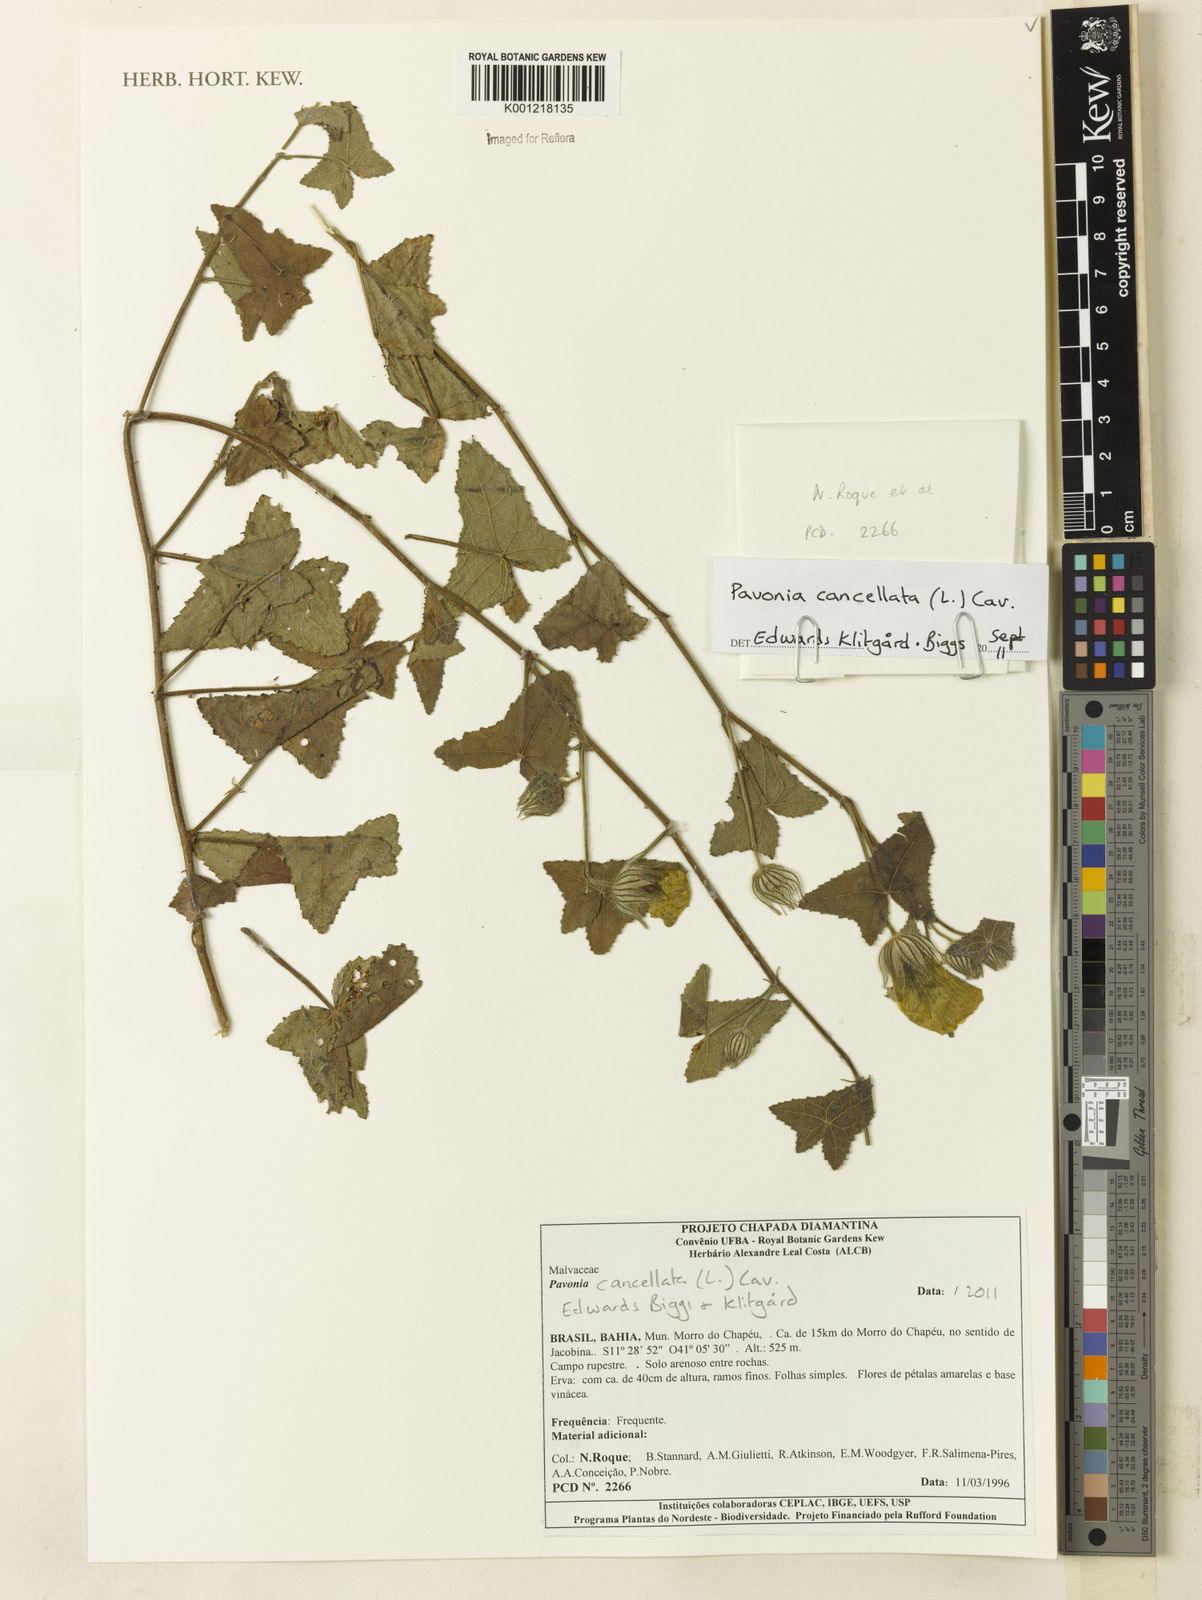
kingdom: Plantae
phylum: Tracheophyta
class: Magnoliopsida
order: Malvales
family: Malvaceae
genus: Pavonia
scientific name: Pavonia cancellata
